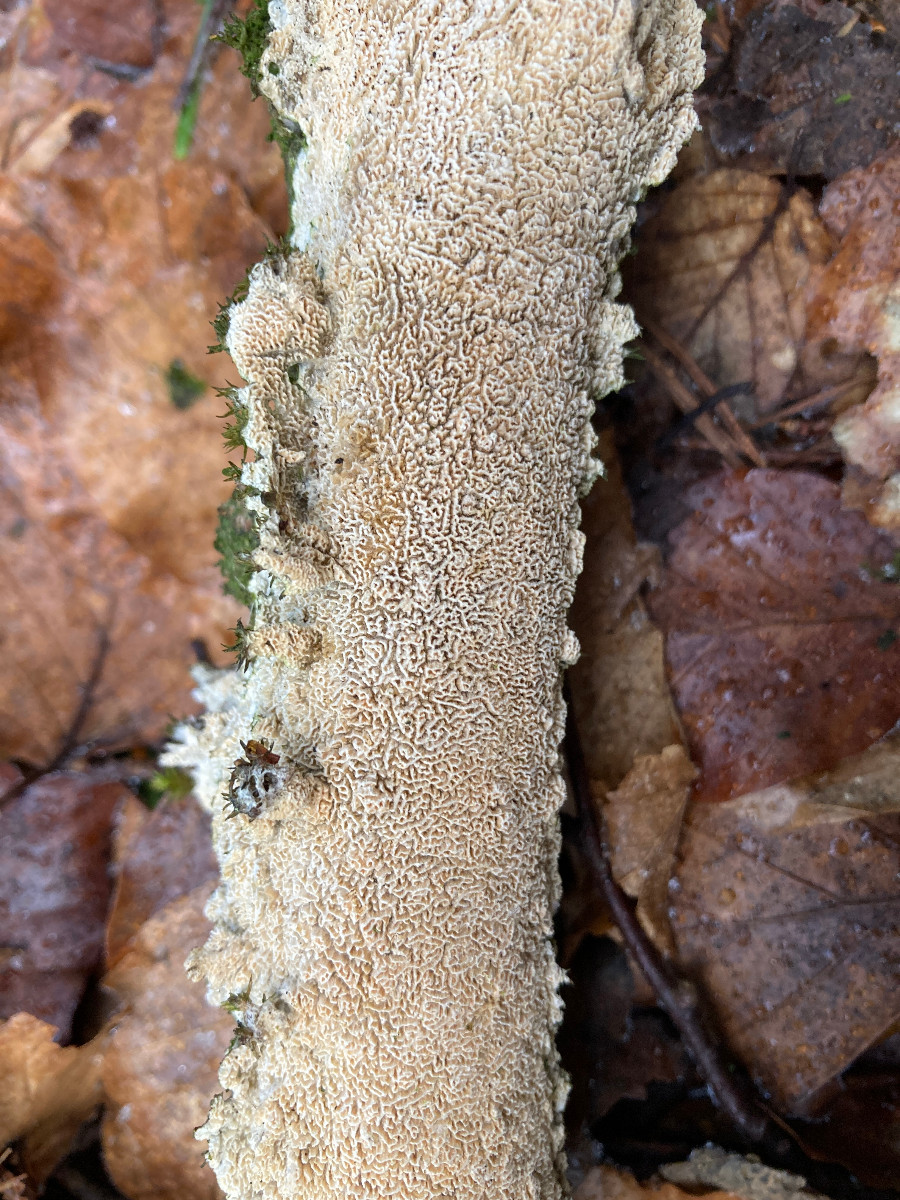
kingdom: Fungi
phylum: Basidiomycota
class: Agaricomycetes
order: Hymenochaetales
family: Schizoporaceae
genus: Xylodon
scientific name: Xylodon subtropicus
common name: labyrint-tandsvamp
